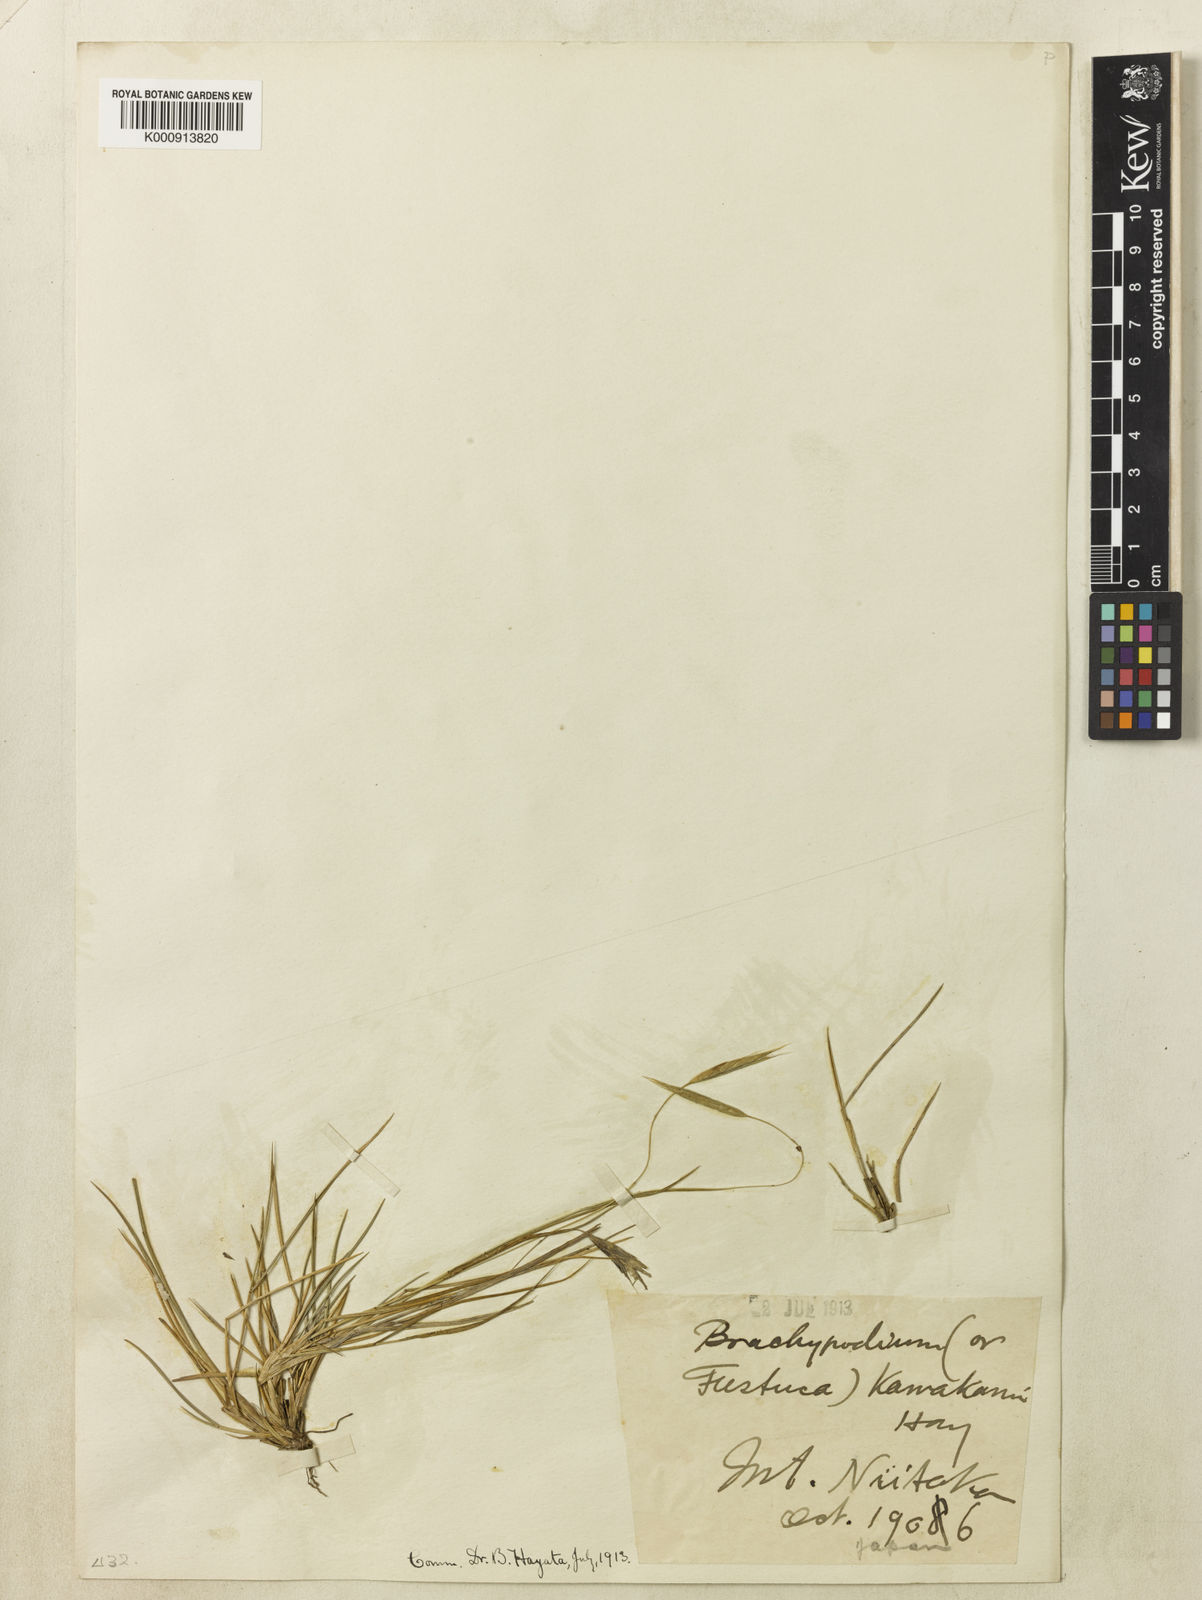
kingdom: Plantae
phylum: Tracheophyta
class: Liliopsida
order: Poales
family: Poaceae
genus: Brachypodium
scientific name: Brachypodium kawakamii
